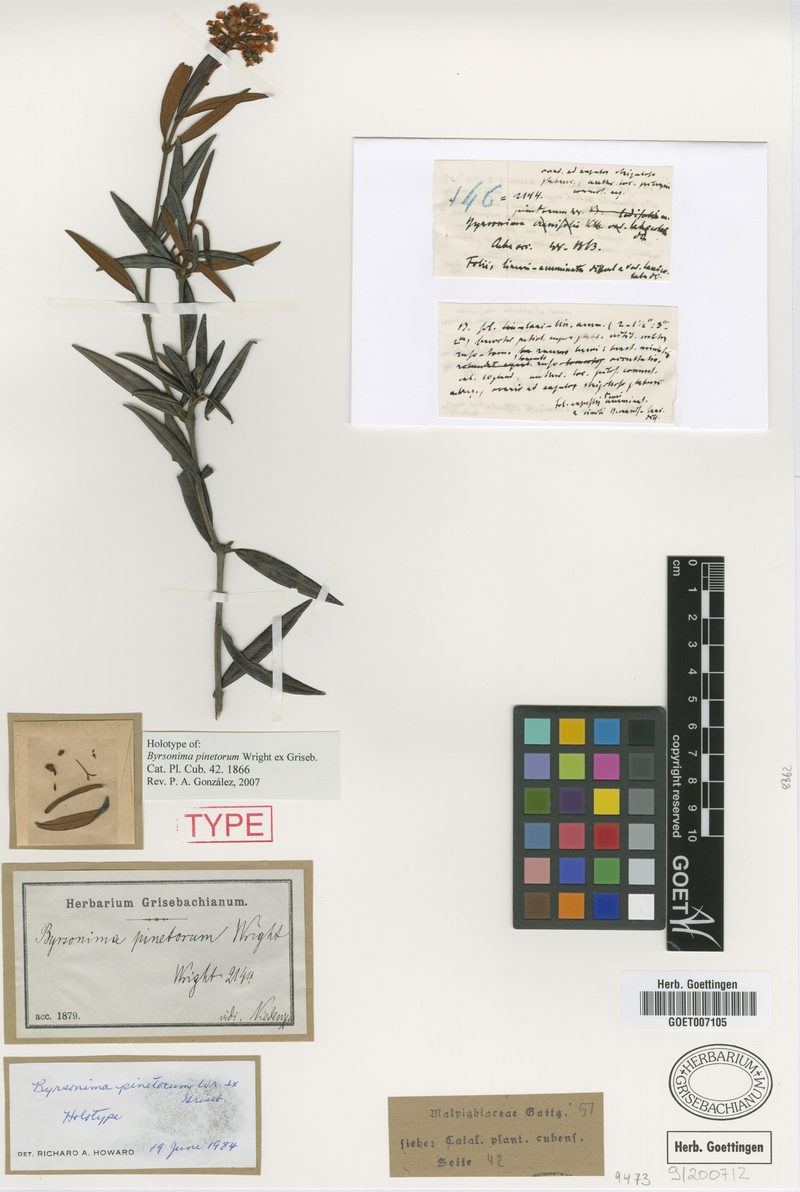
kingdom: Plantae
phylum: Tracheophyta
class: Magnoliopsida
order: Malpighiales
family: Malpighiaceae
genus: Byrsonima
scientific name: Byrsonima pinetorum
